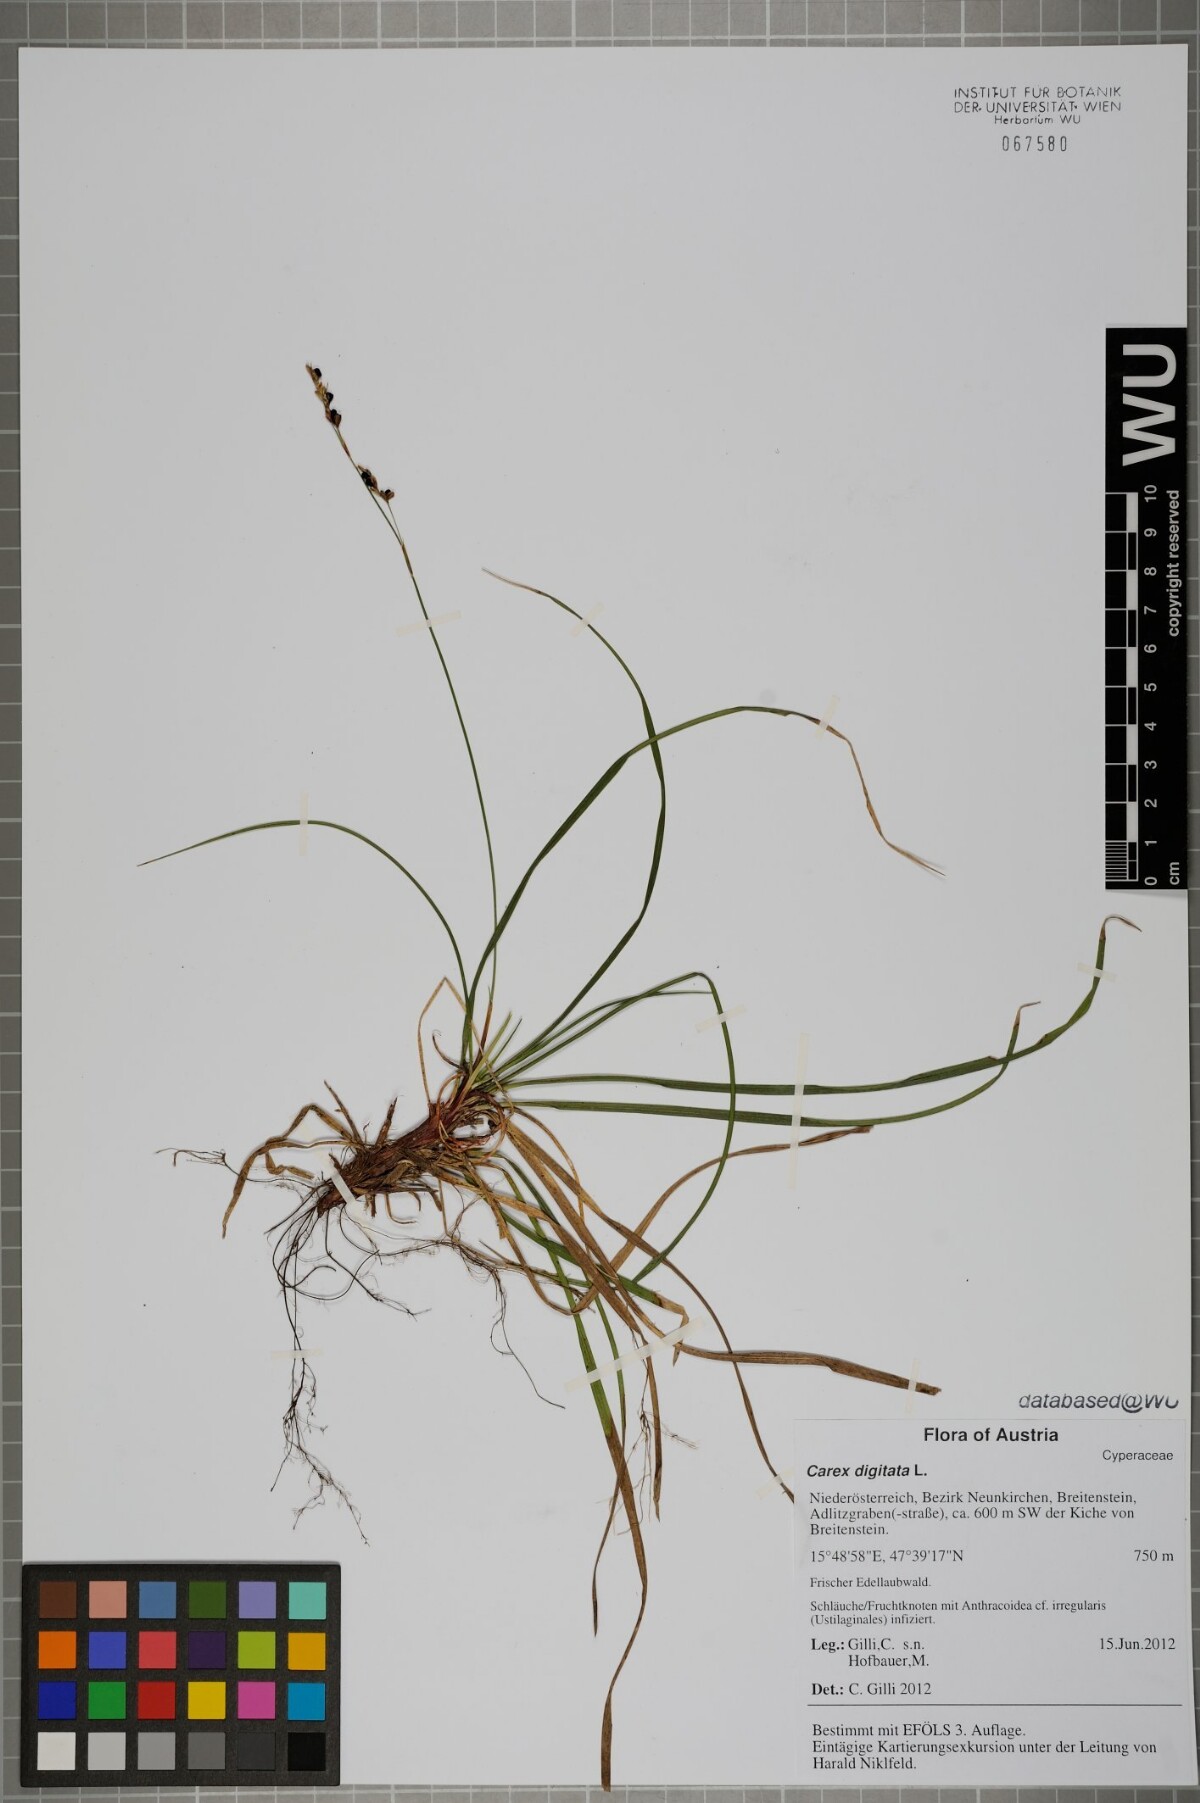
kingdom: Plantae
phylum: Tracheophyta
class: Liliopsida
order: Poales
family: Cyperaceae
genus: Carex
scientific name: Carex digitata
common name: Fingered sedge
